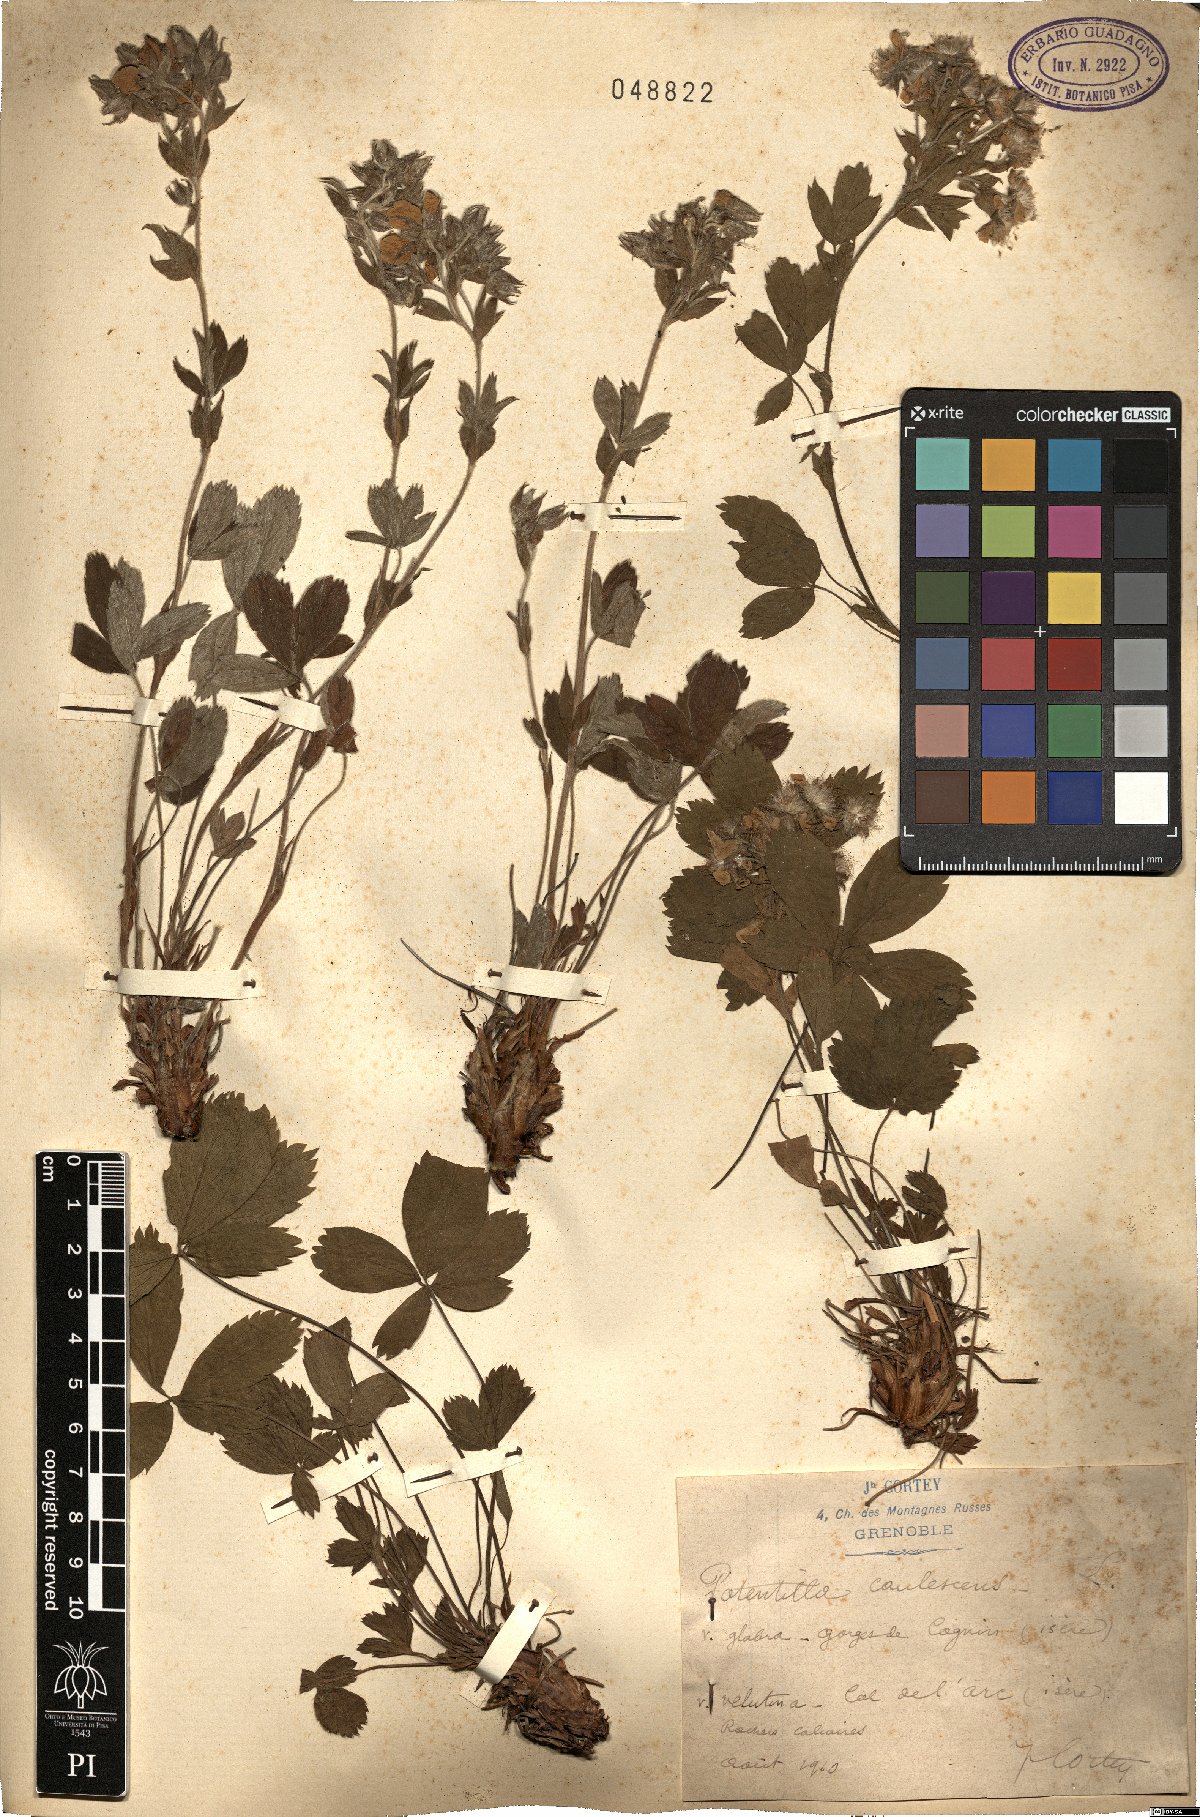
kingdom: Plantae
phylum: Tracheophyta
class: Magnoliopsida
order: Rosales
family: Rosaceae
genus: Potentilla
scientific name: Potentilla caulescens
